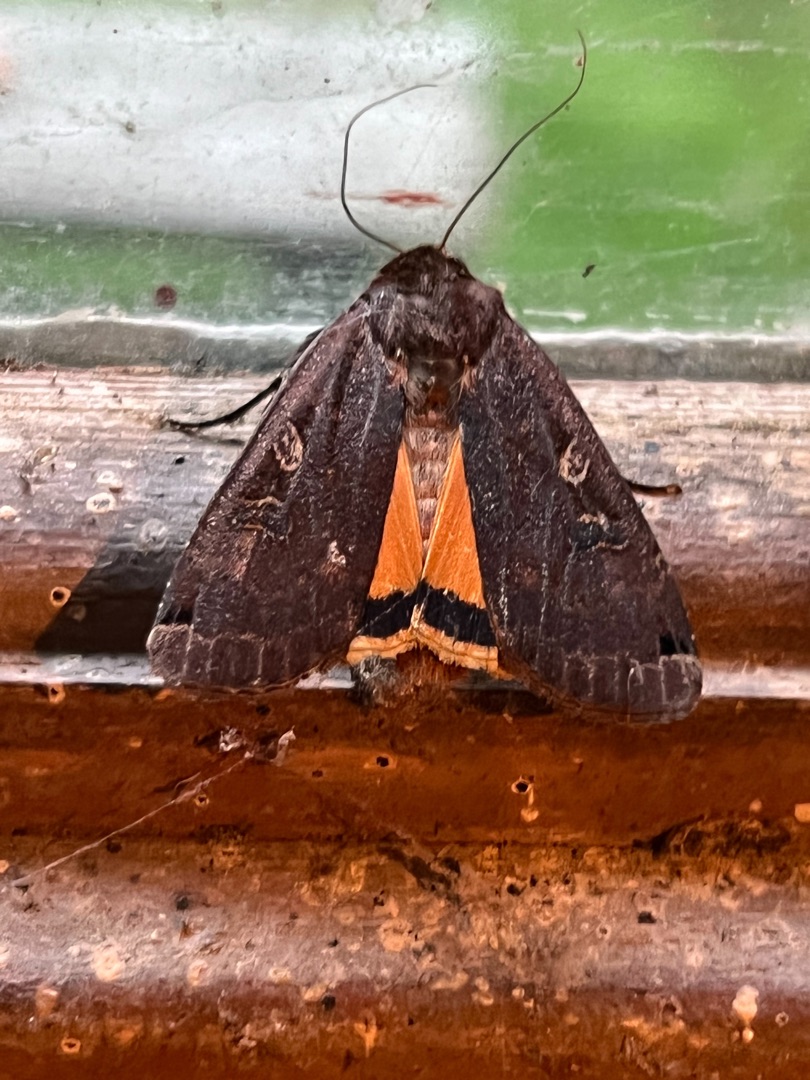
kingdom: Animalia
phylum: Arthropoda
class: Insecta
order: Lepidoptera
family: Noctuidae
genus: Noctua
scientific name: Noctua pronuba
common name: Stor smutugle
